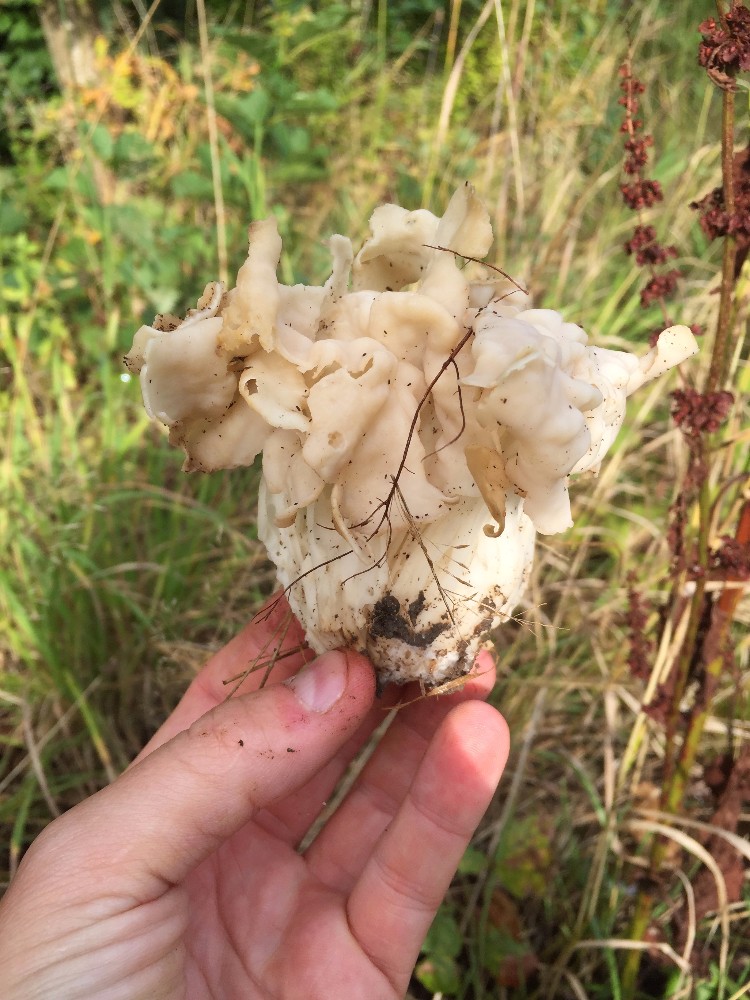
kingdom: Fungi
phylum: Ascomycota
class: Pezizomycetes
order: Pezizales
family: Helvellaceae
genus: Helvella
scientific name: Helvella crispa
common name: kruset foldhat
